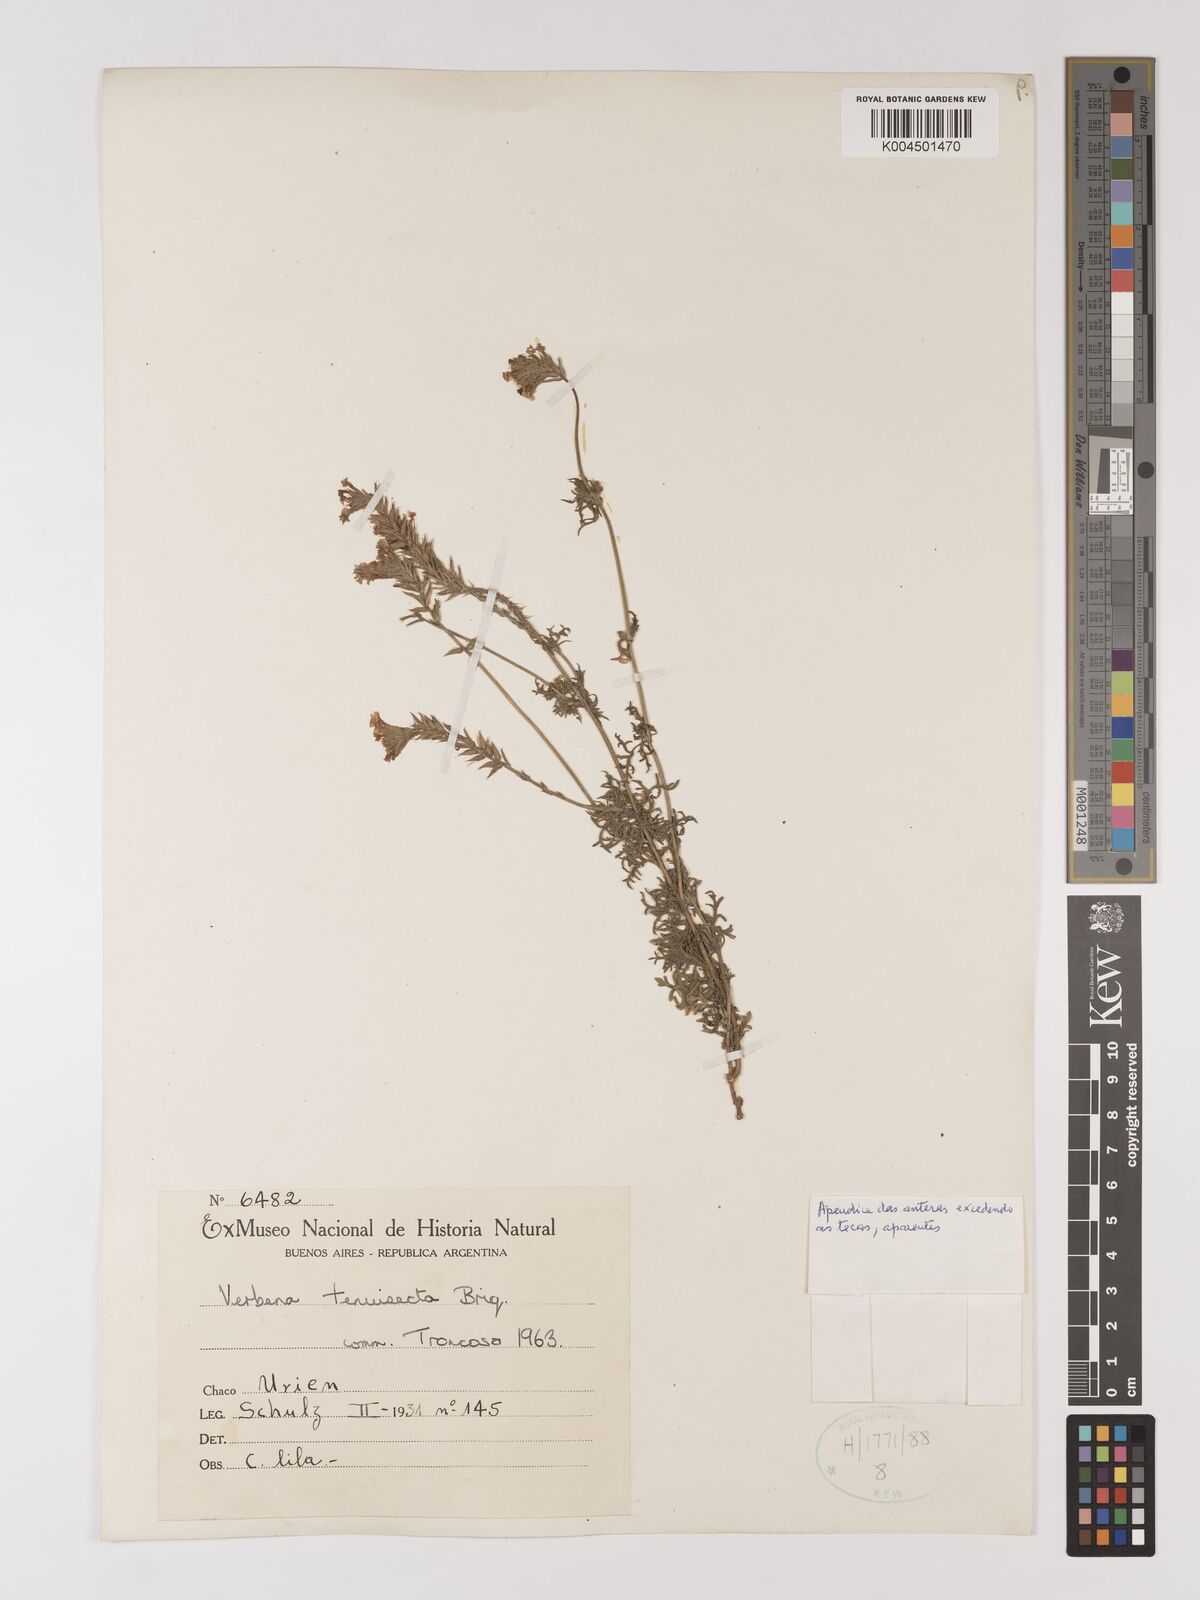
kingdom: Plantae
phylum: Tracheophyta
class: Magnoliopsida
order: Lamiales
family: Verbenaceae
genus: Verbena
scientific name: Verbena tenera
